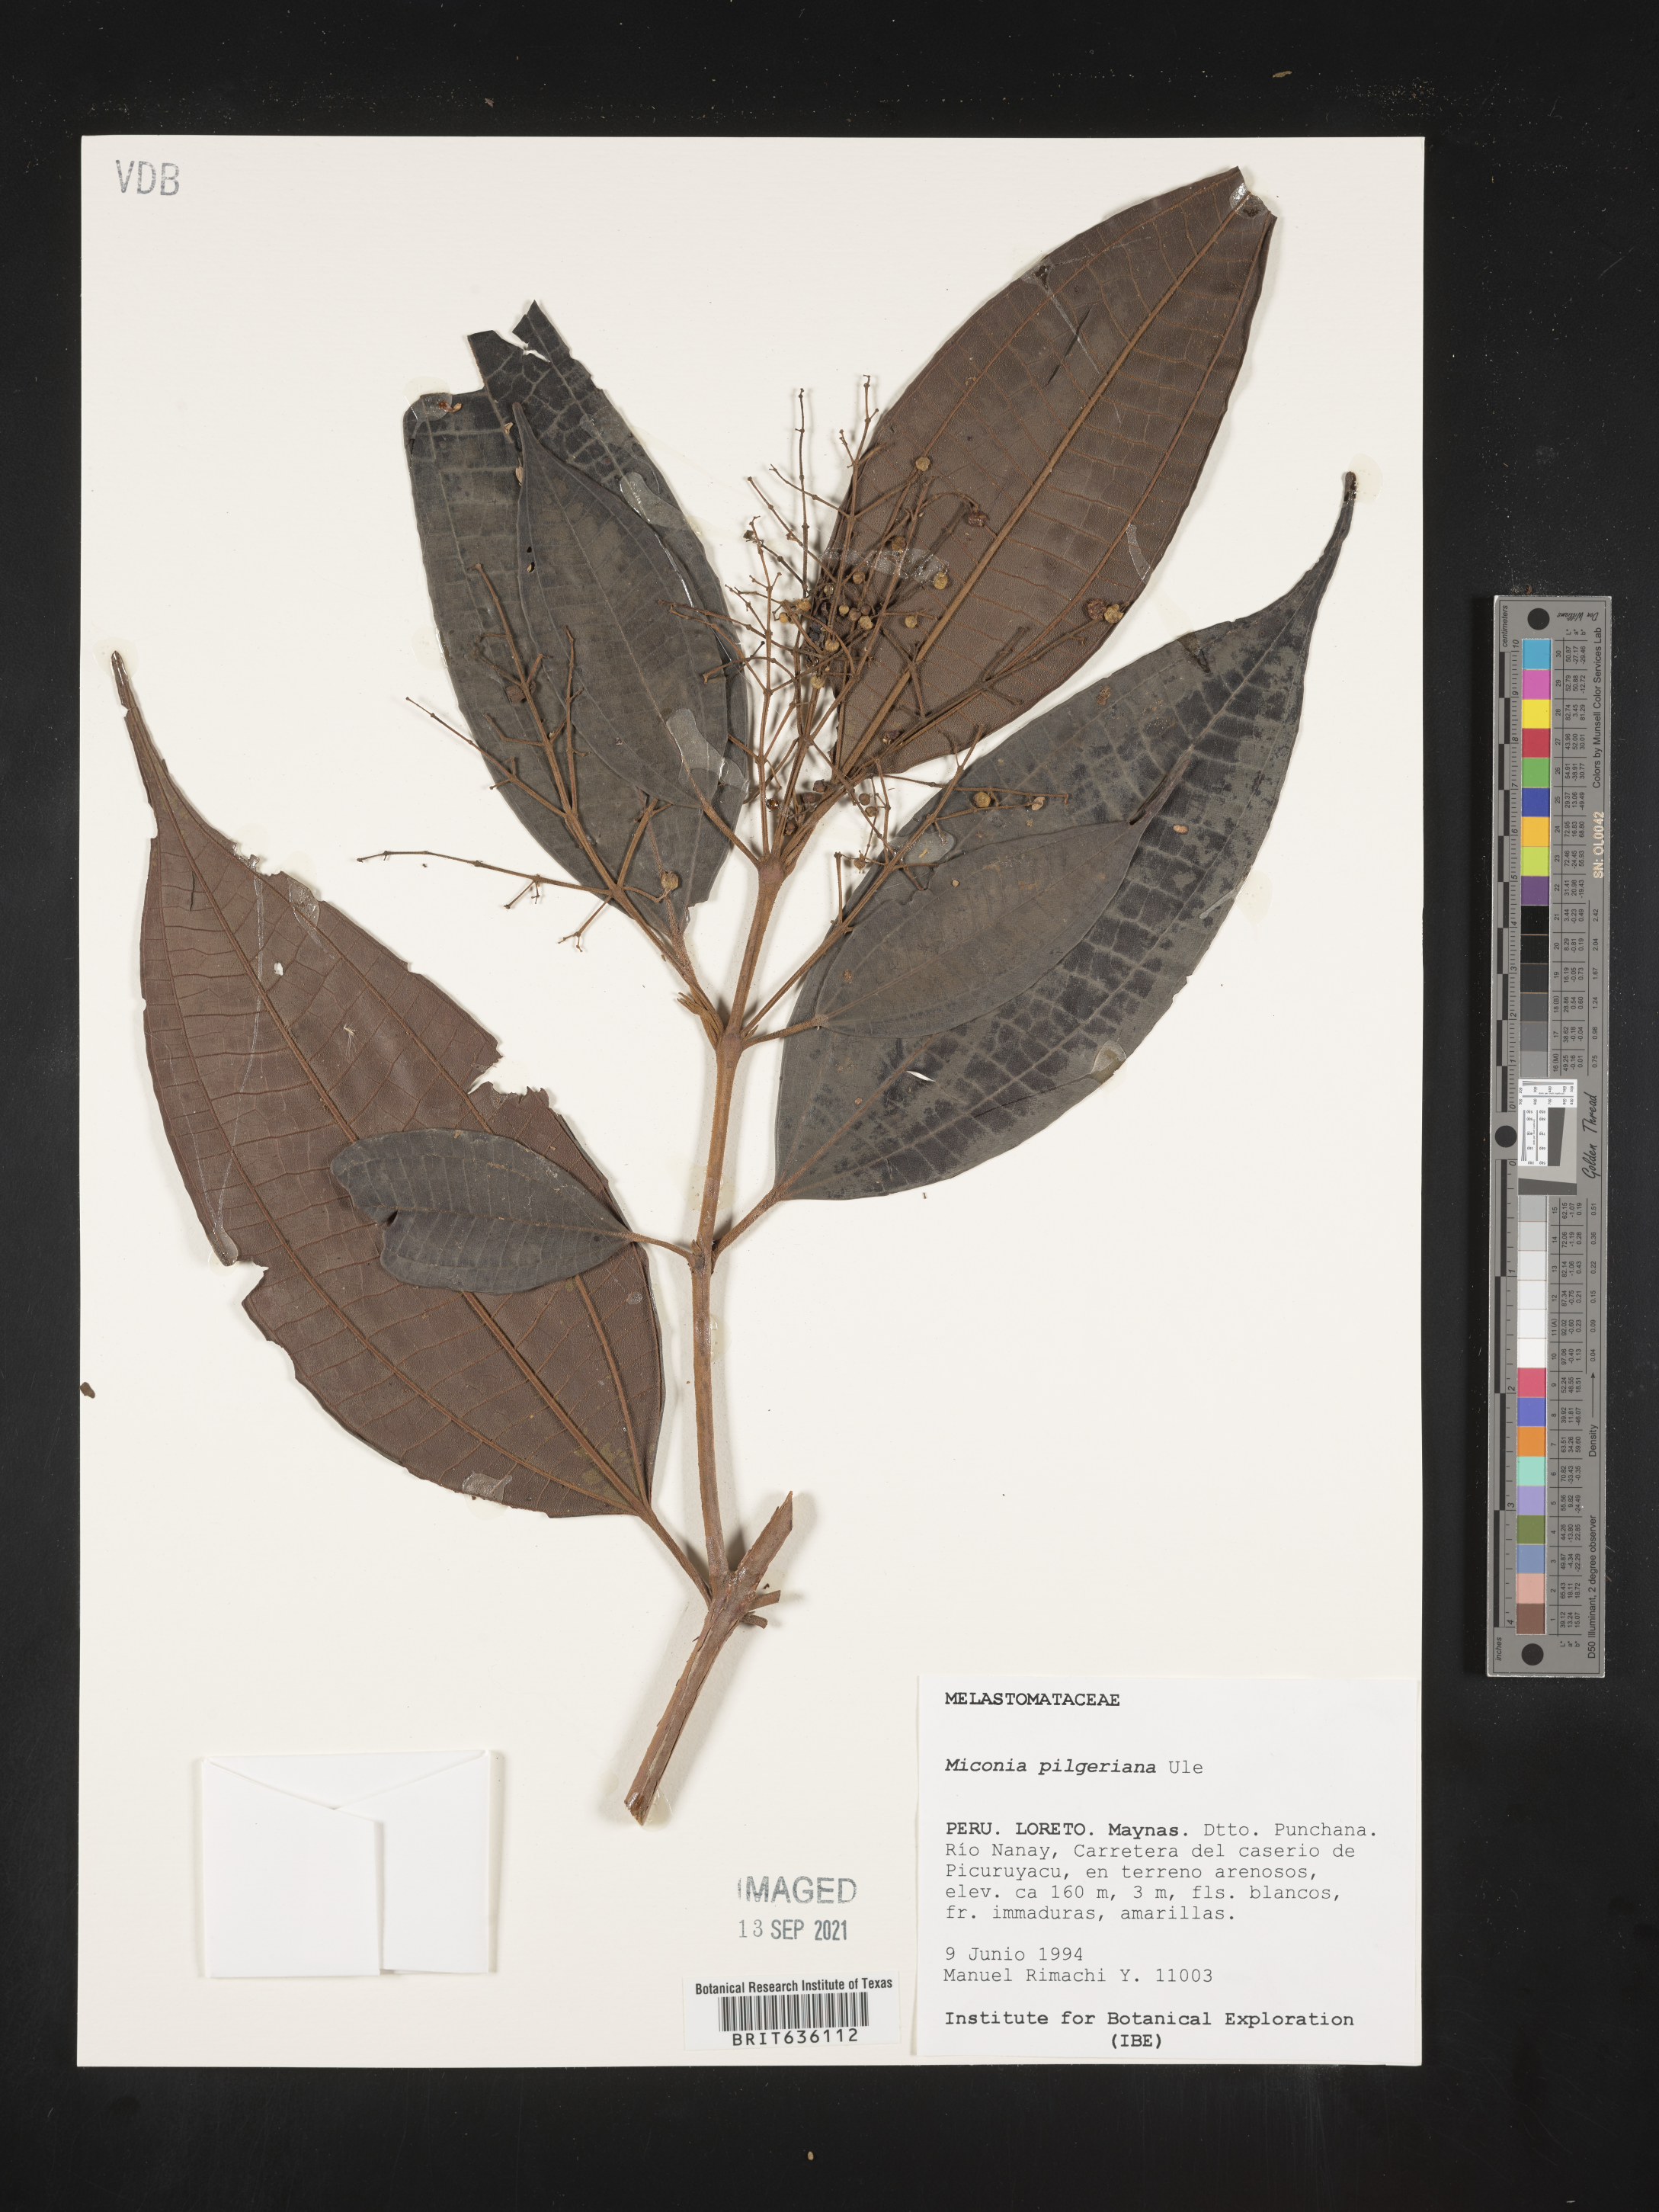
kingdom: Plantae
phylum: Tracheophyta
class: Magnoliopsida
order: Myrtales
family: Melastomataceae
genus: Miconia
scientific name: Miconia
